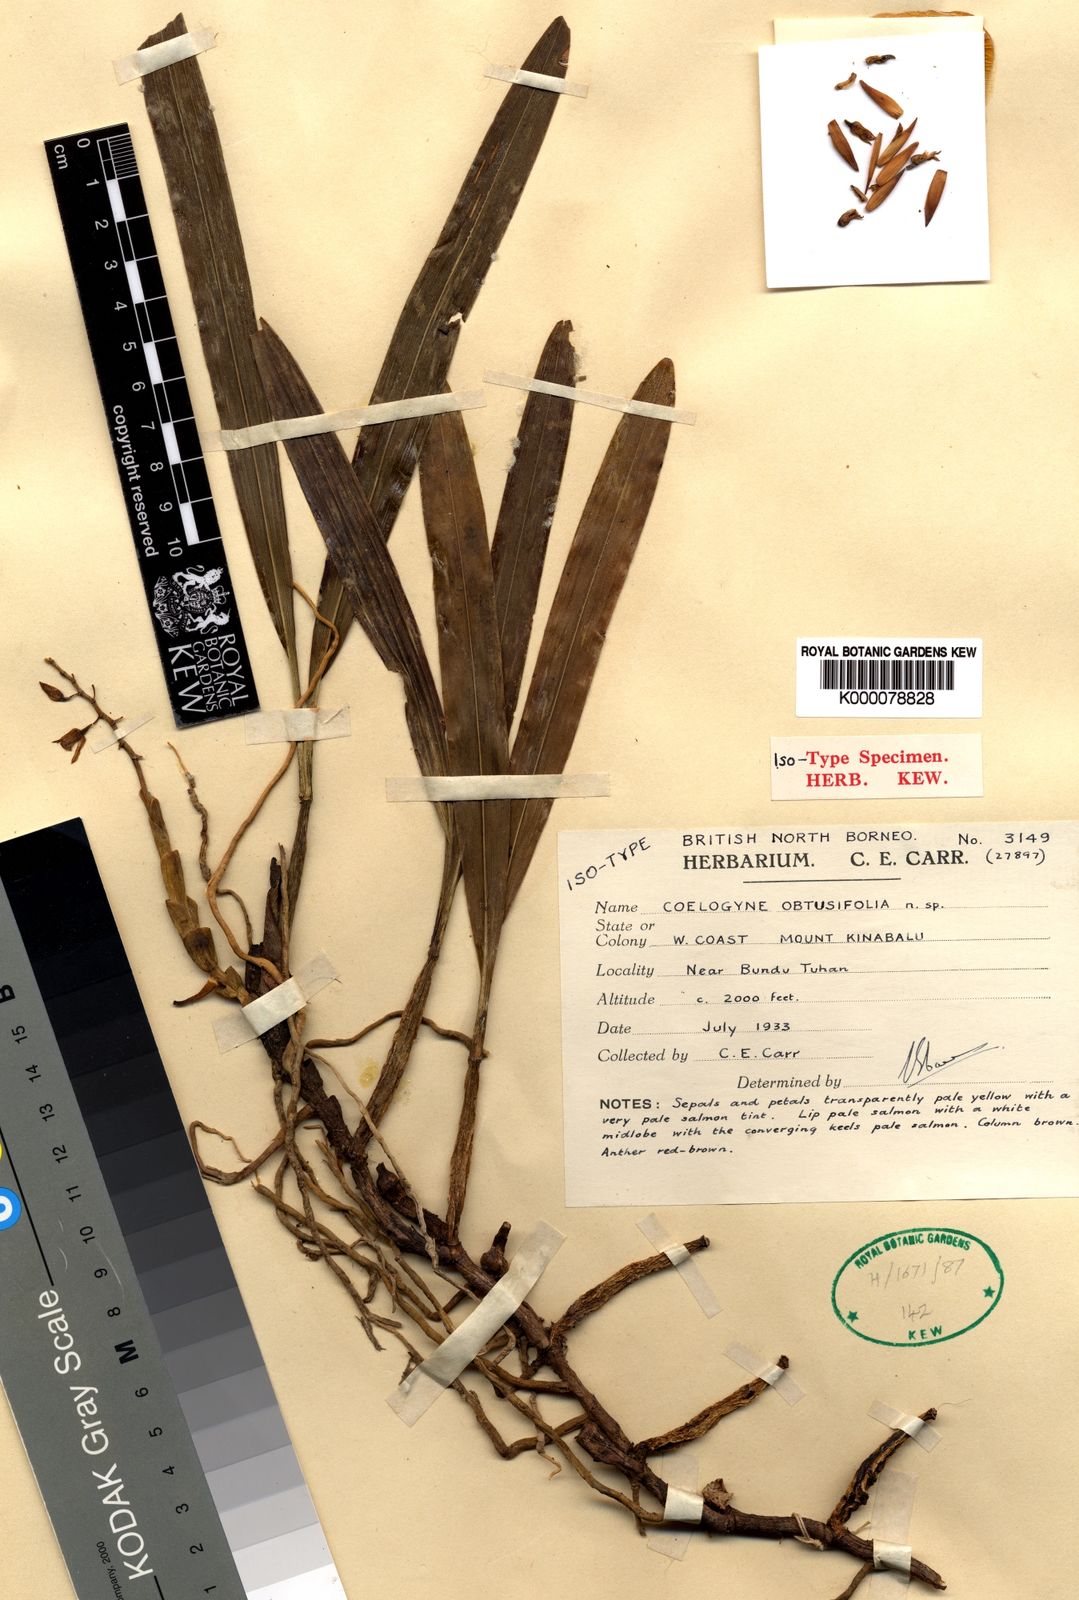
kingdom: Plantae
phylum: Tracheophyta
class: Liliopsida
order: Asparagales
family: Orchidaceae
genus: Coelogyne
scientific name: Coelogyne obtusifolia
